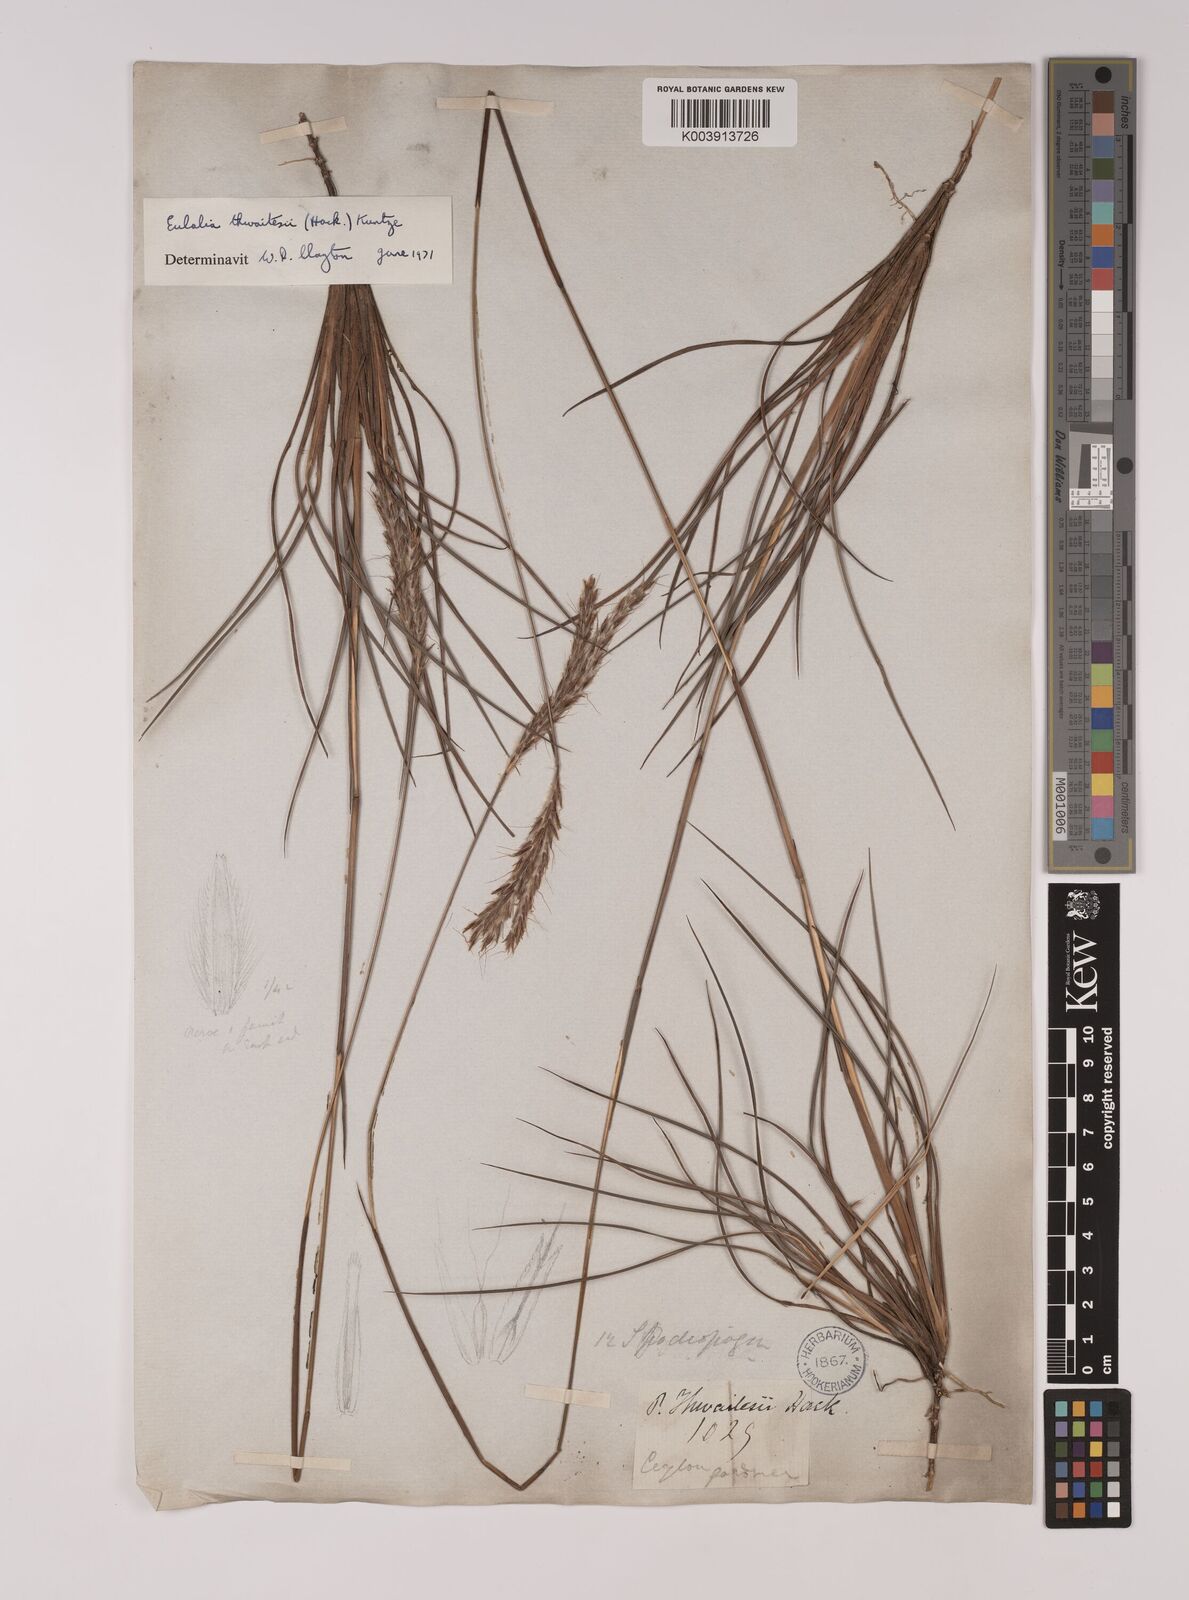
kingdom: Plantae
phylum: Tracheophyta
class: Liliopsida
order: Poales
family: Poaceae
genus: Eulalia
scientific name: Eulalia thwaitesii
